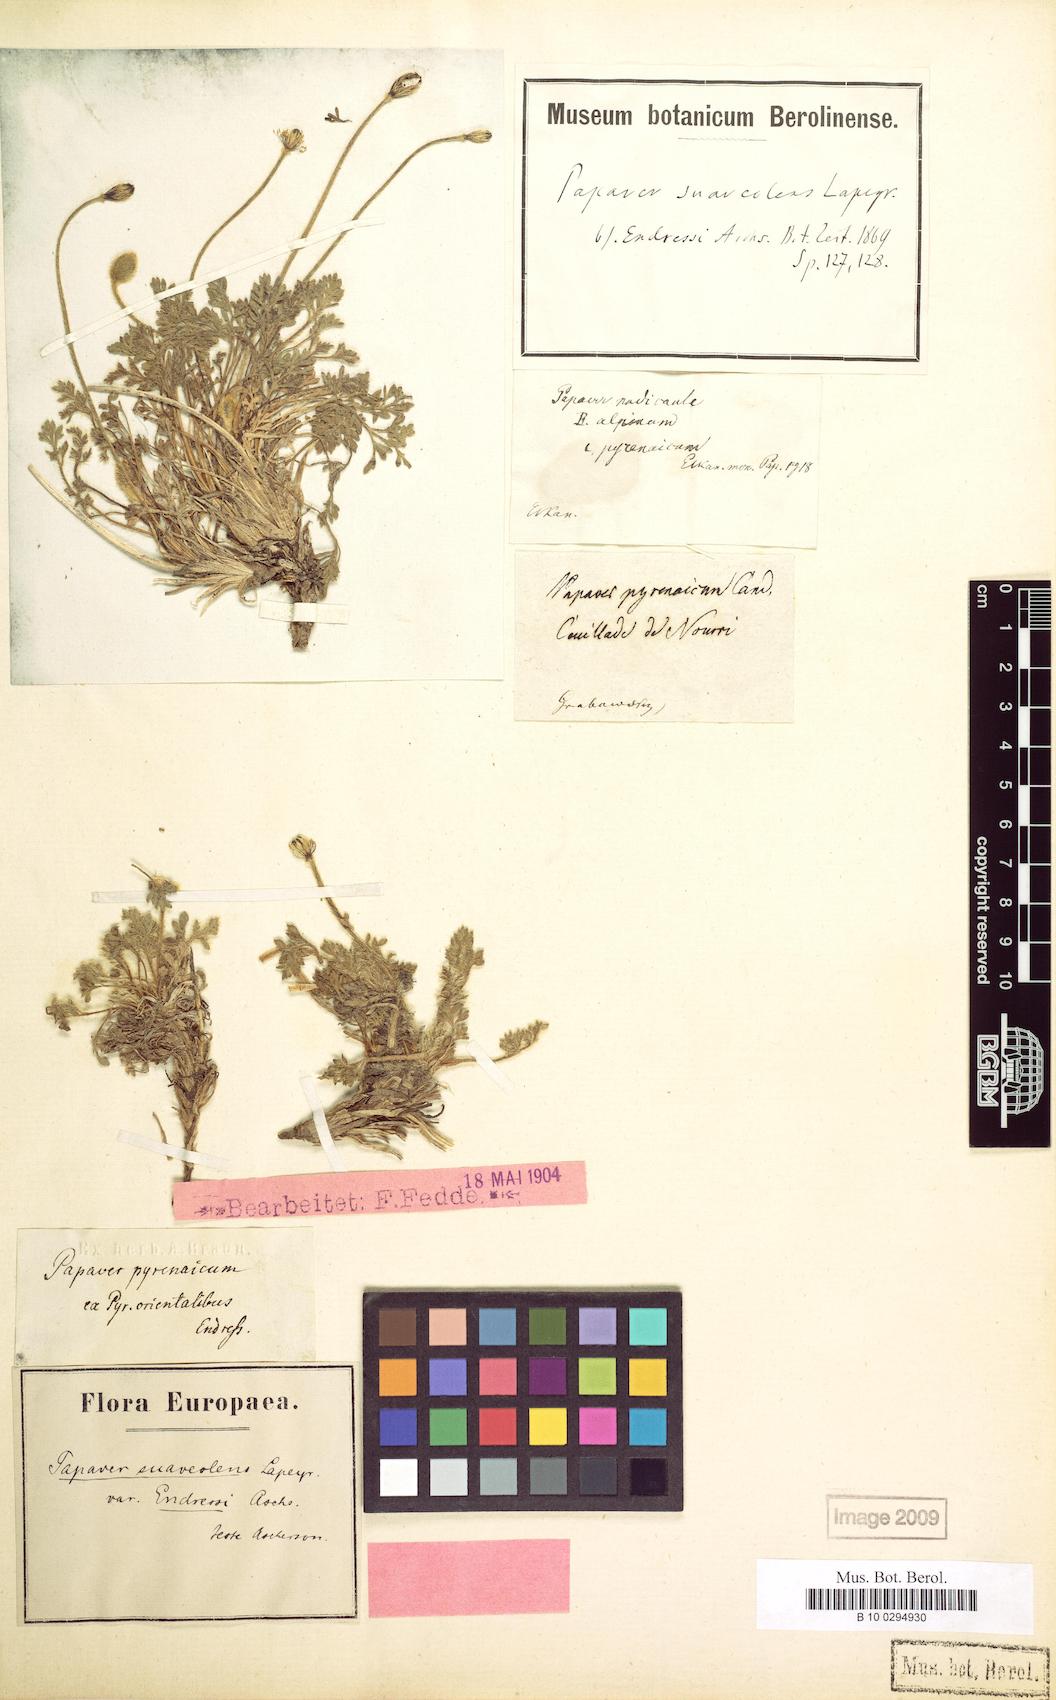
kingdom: Plantae
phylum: Tracheophyta
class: Magnoliopsida
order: Ranunculales
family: Papaveraceae
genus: Papaver
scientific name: Papaver alpinum
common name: Austrian poppy
